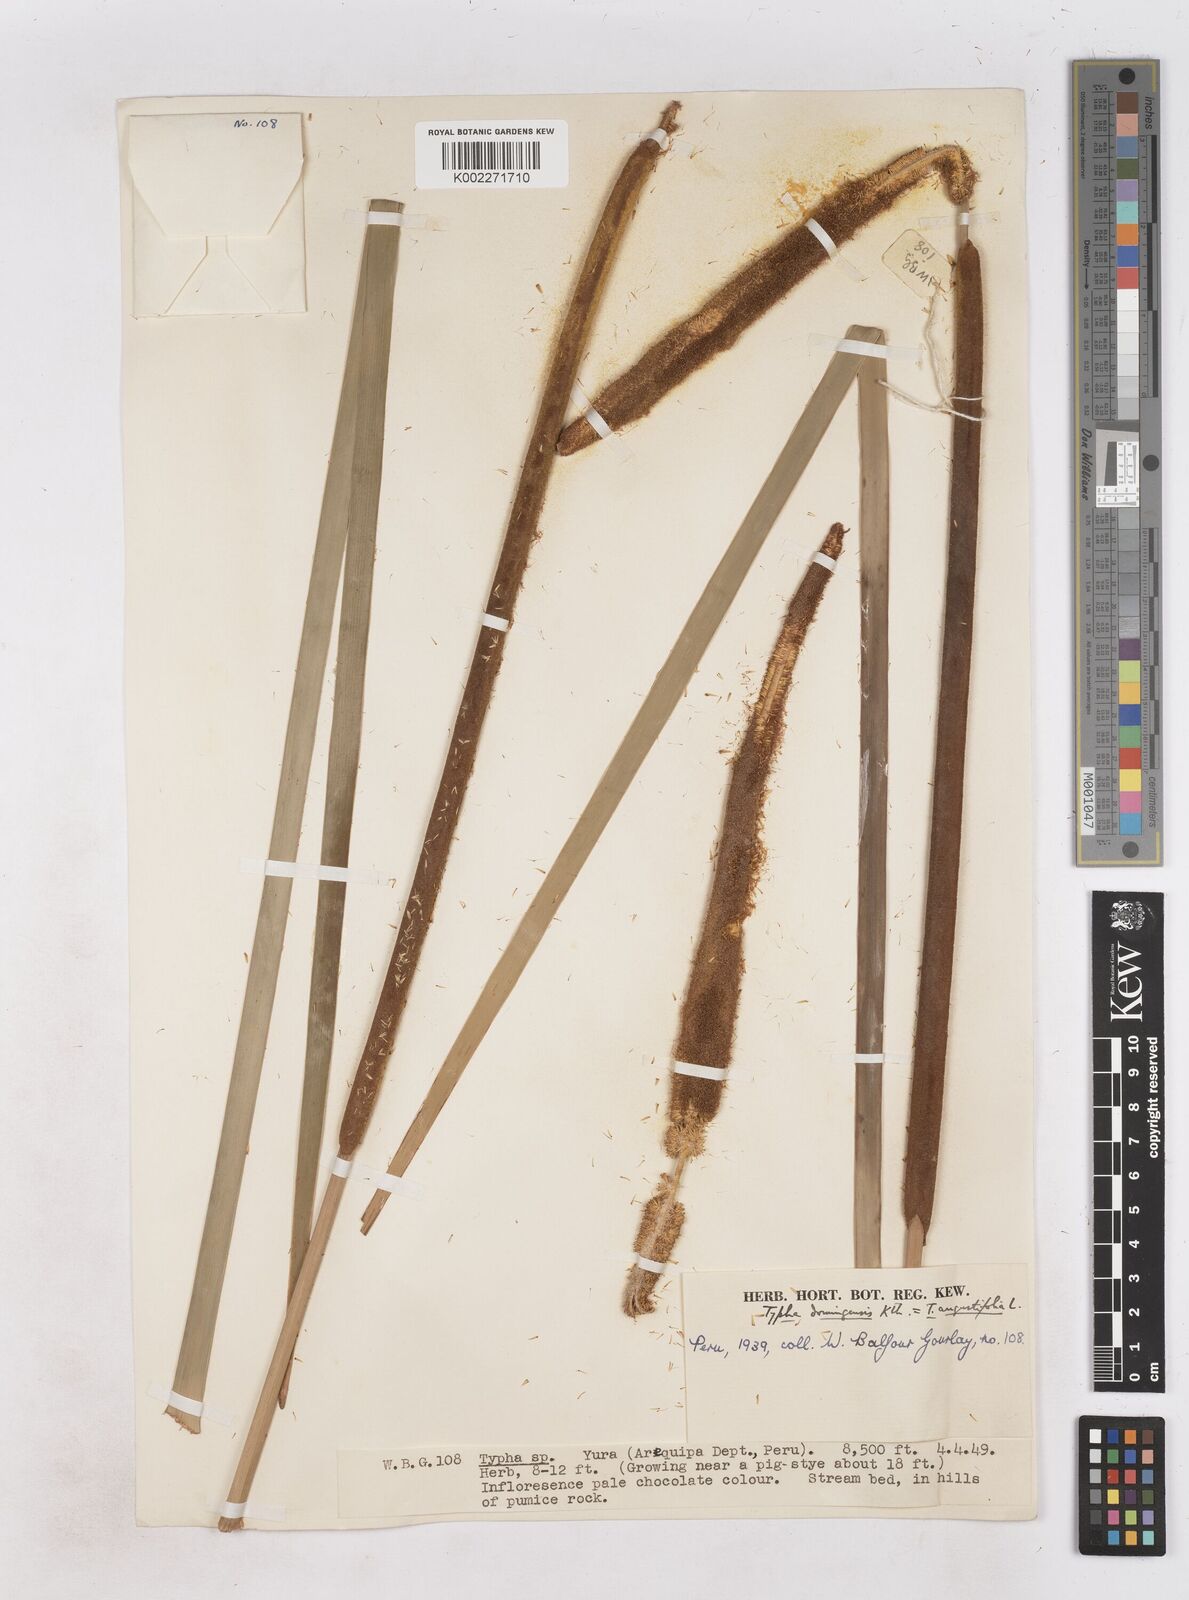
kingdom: Plantae
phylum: Tracheophyta
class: Liliopsida
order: Poales
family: Typhaceae
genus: Typha
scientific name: Typha domingensis
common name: Southern cattail
